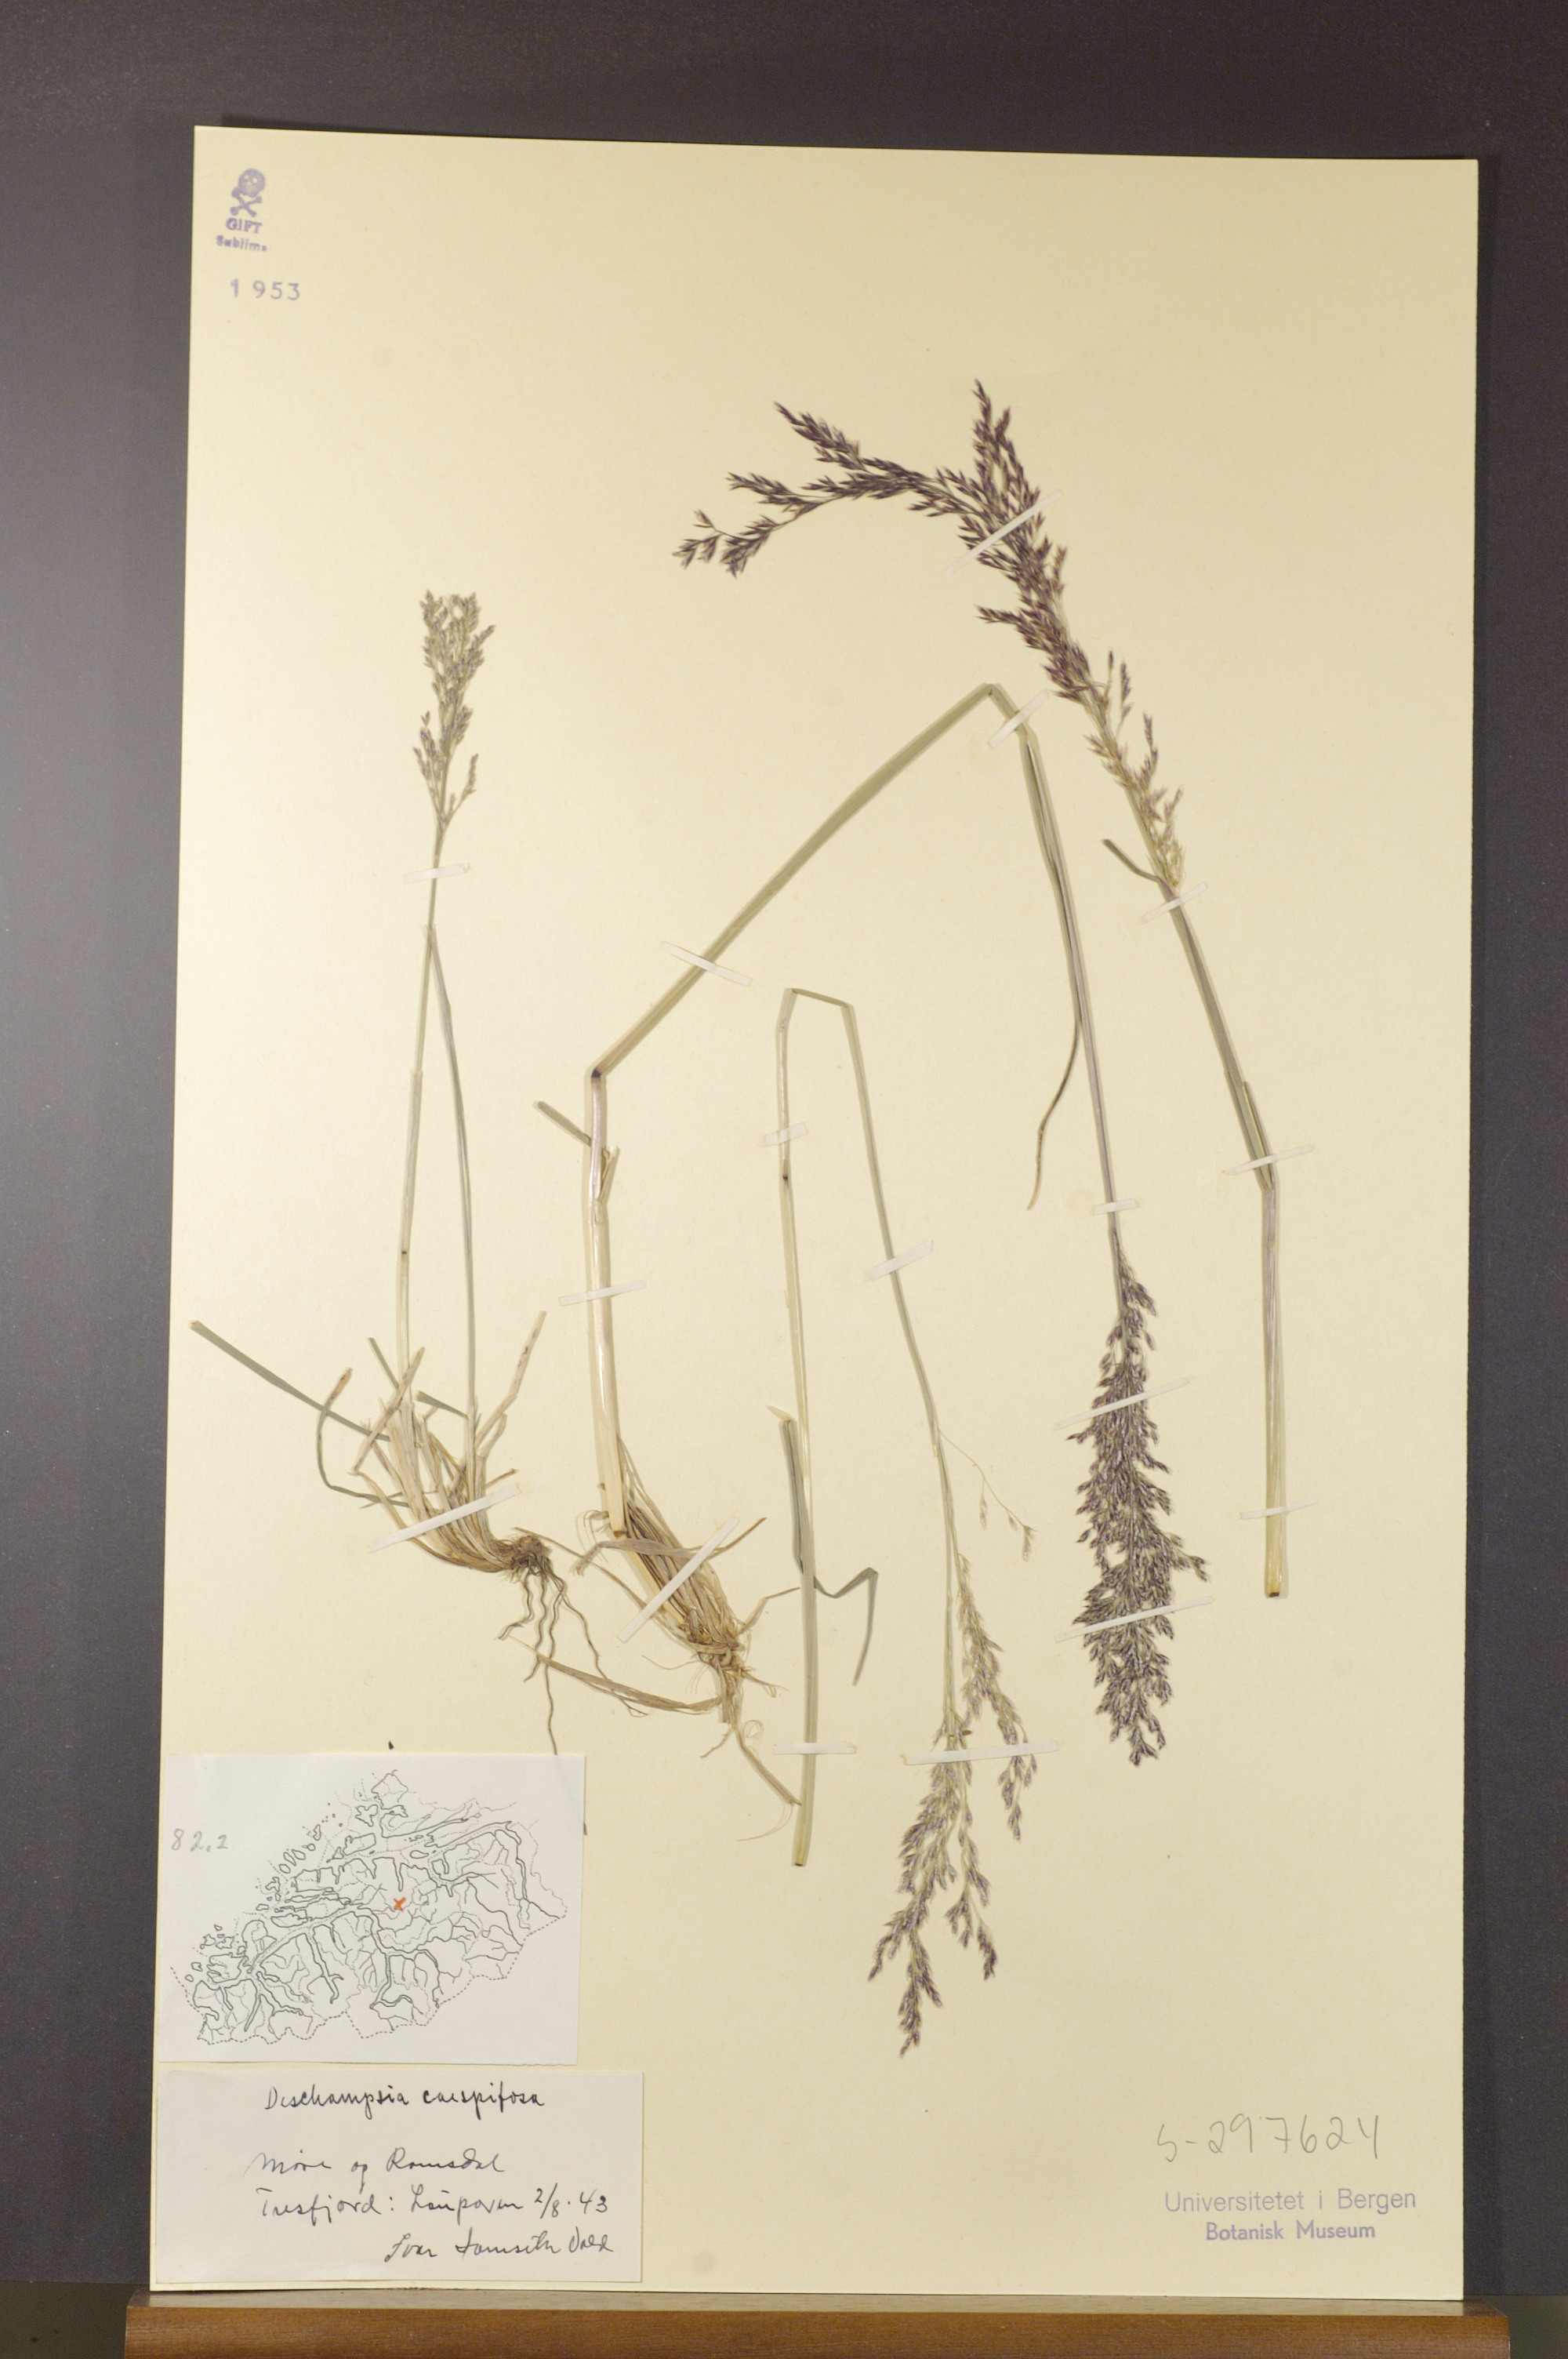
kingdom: Plantae
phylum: Tracheophyta
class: Liliopsida
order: Poales
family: Poaceae
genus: Deschampsia
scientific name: Deschampsia cespitosa
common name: Tufted hair-grass
